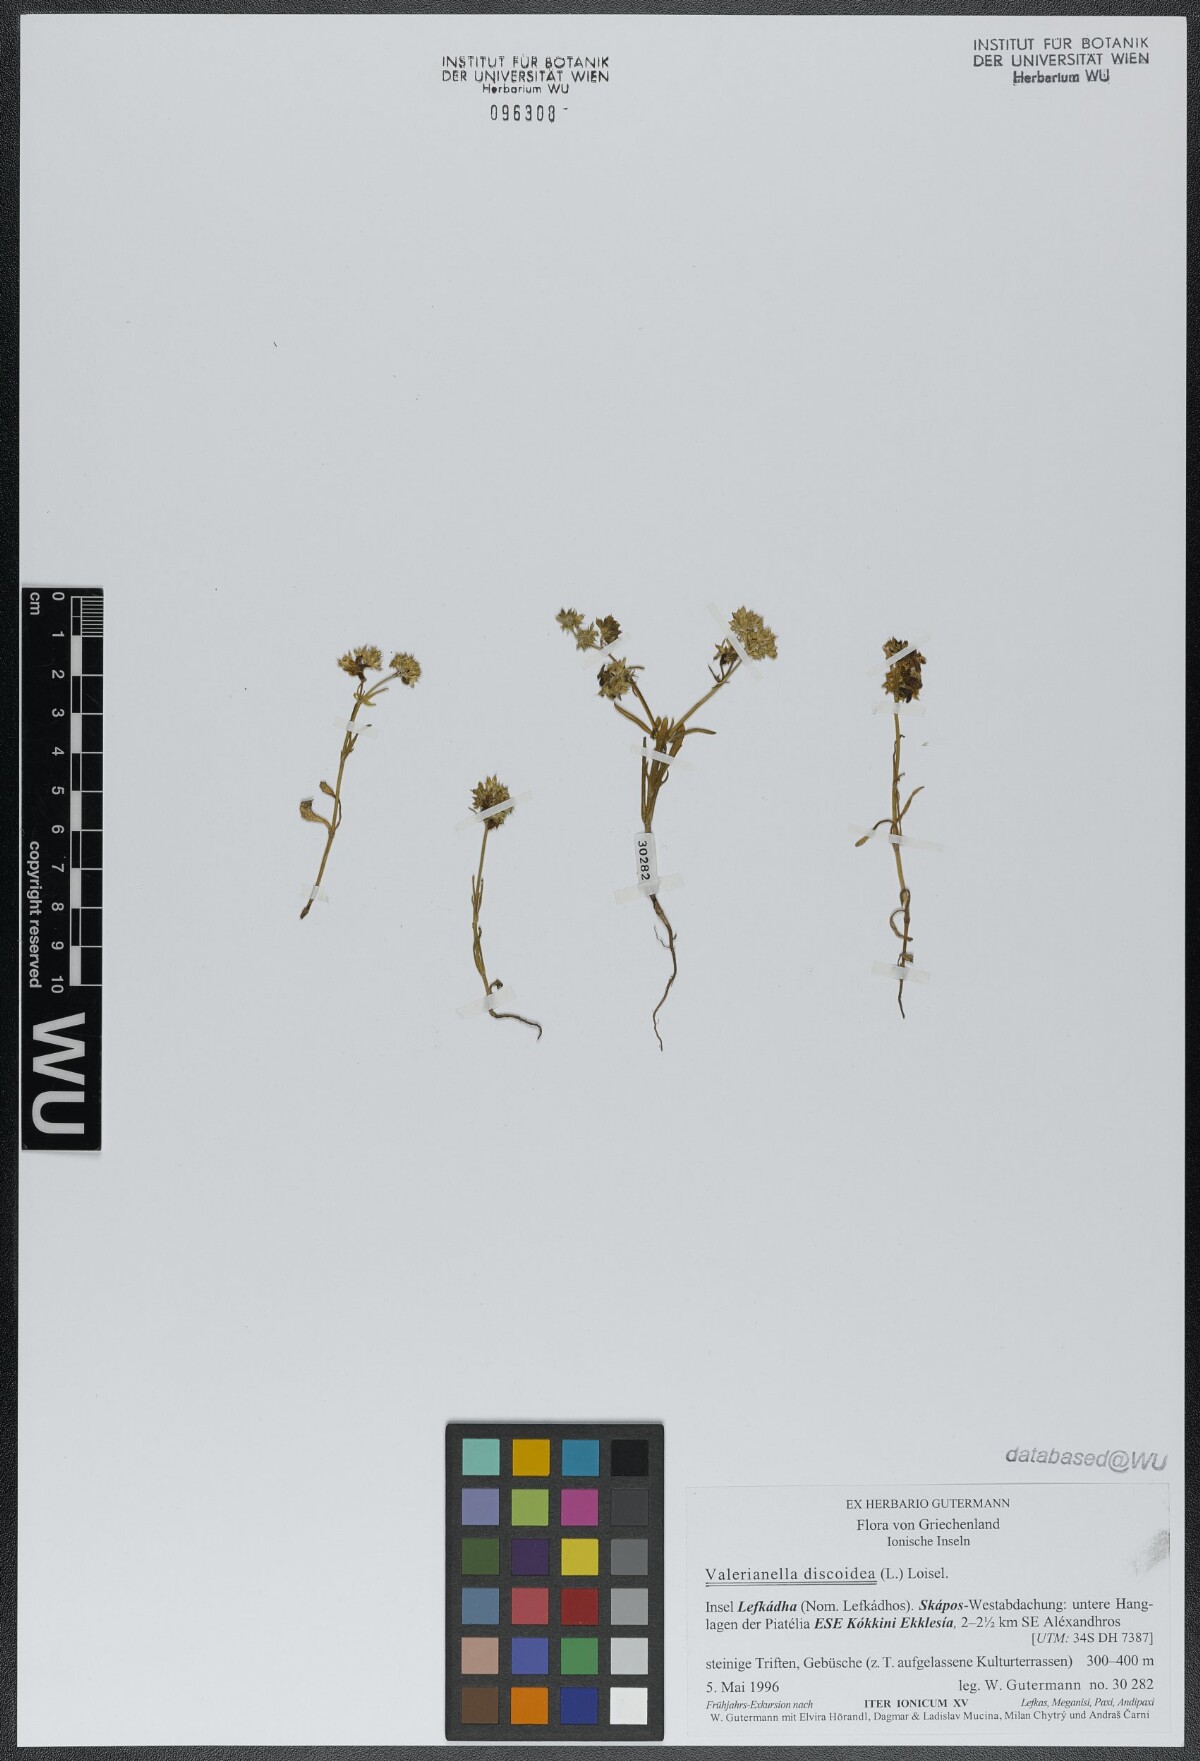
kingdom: Plantae
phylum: Tracheophyta
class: Magnoliopsida
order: Dipsacales
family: Caprifoliaceae
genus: Valerianella
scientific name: Valerianella discoidea
